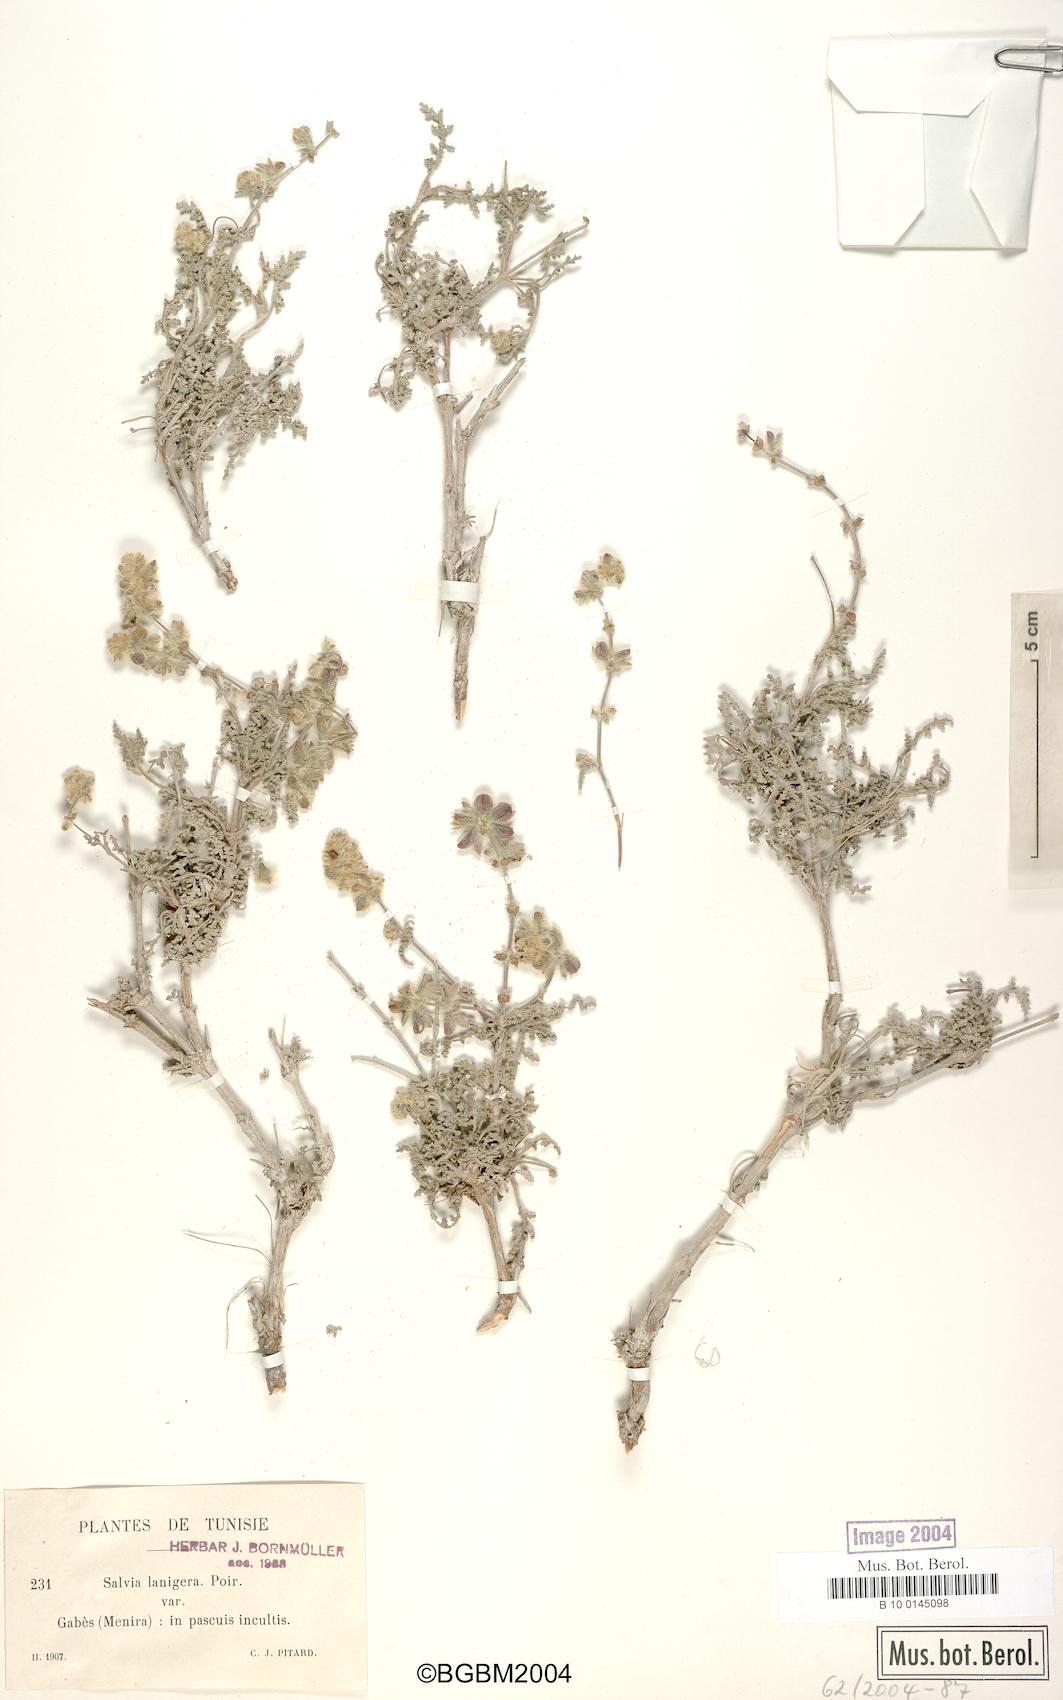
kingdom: Plantae
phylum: Tracheophyta
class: Magnoliopsida
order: Lamiales
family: Lamiaceae
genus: Salvia
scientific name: Salvia lanigera
